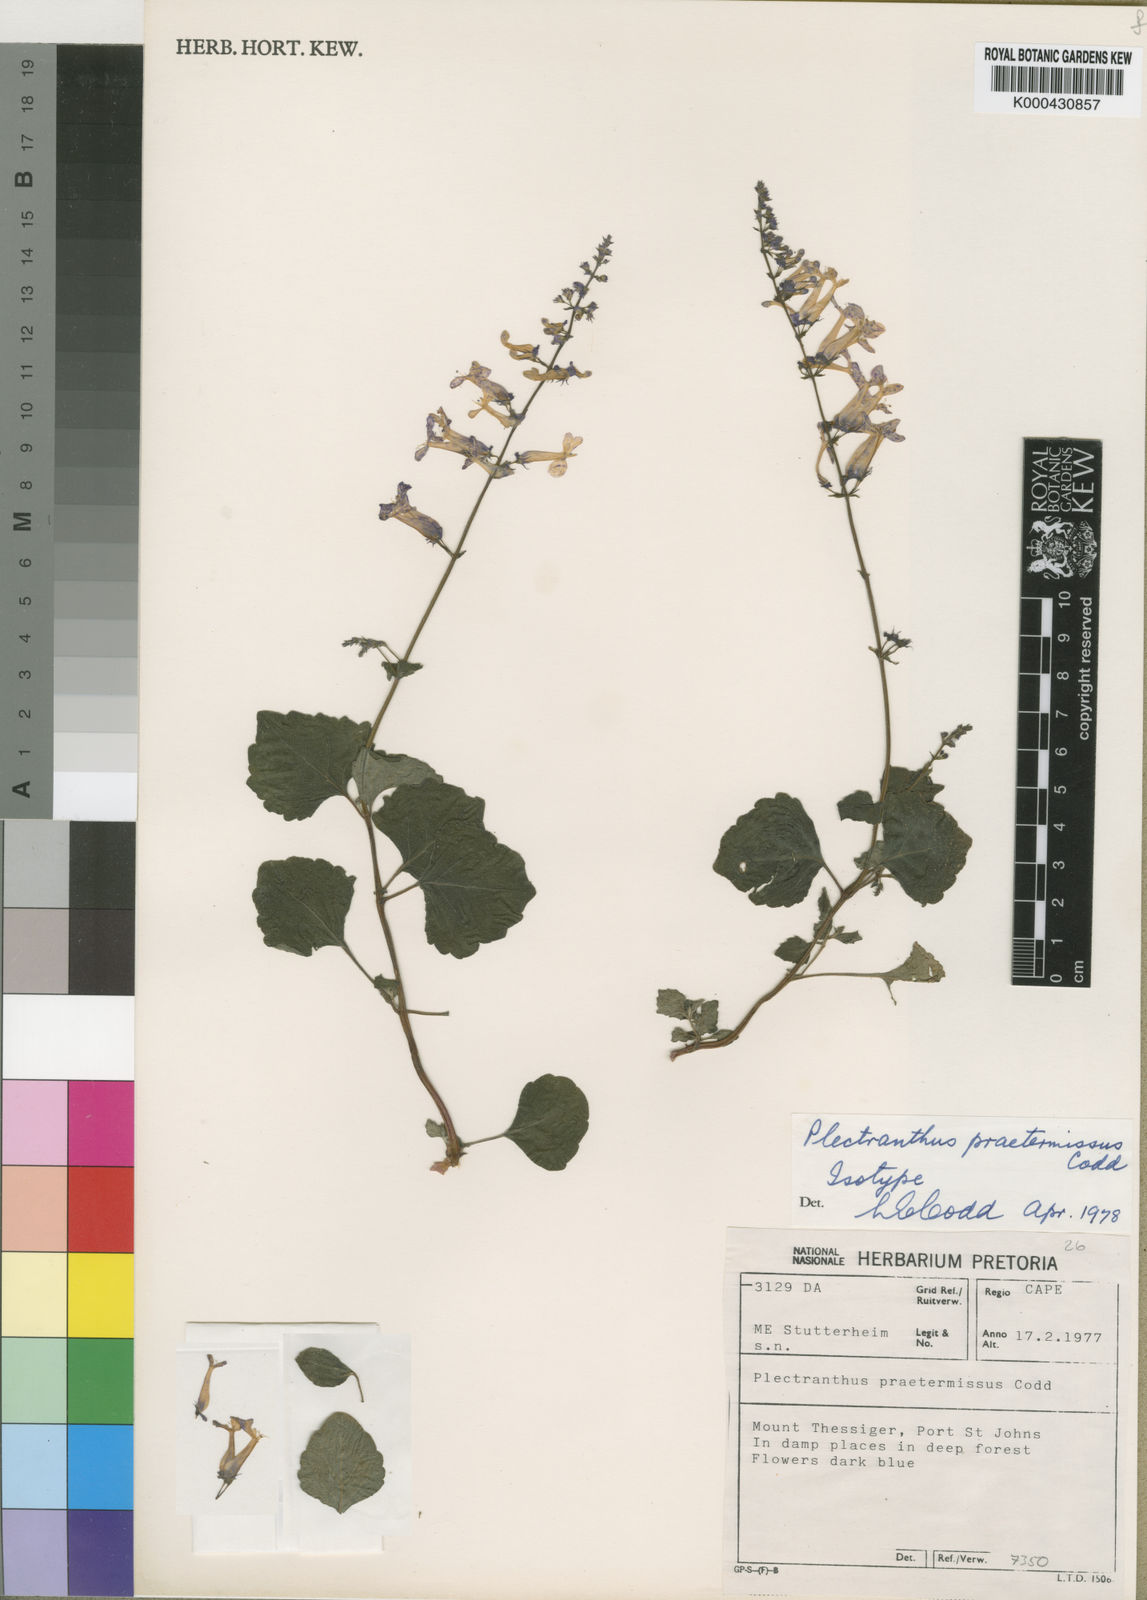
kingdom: Plantae
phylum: Tracheophyta
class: Magnoliopsida
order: Lamiales
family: Lamiaceae
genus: Plectranthus
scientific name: Plectranthus praetermissus
